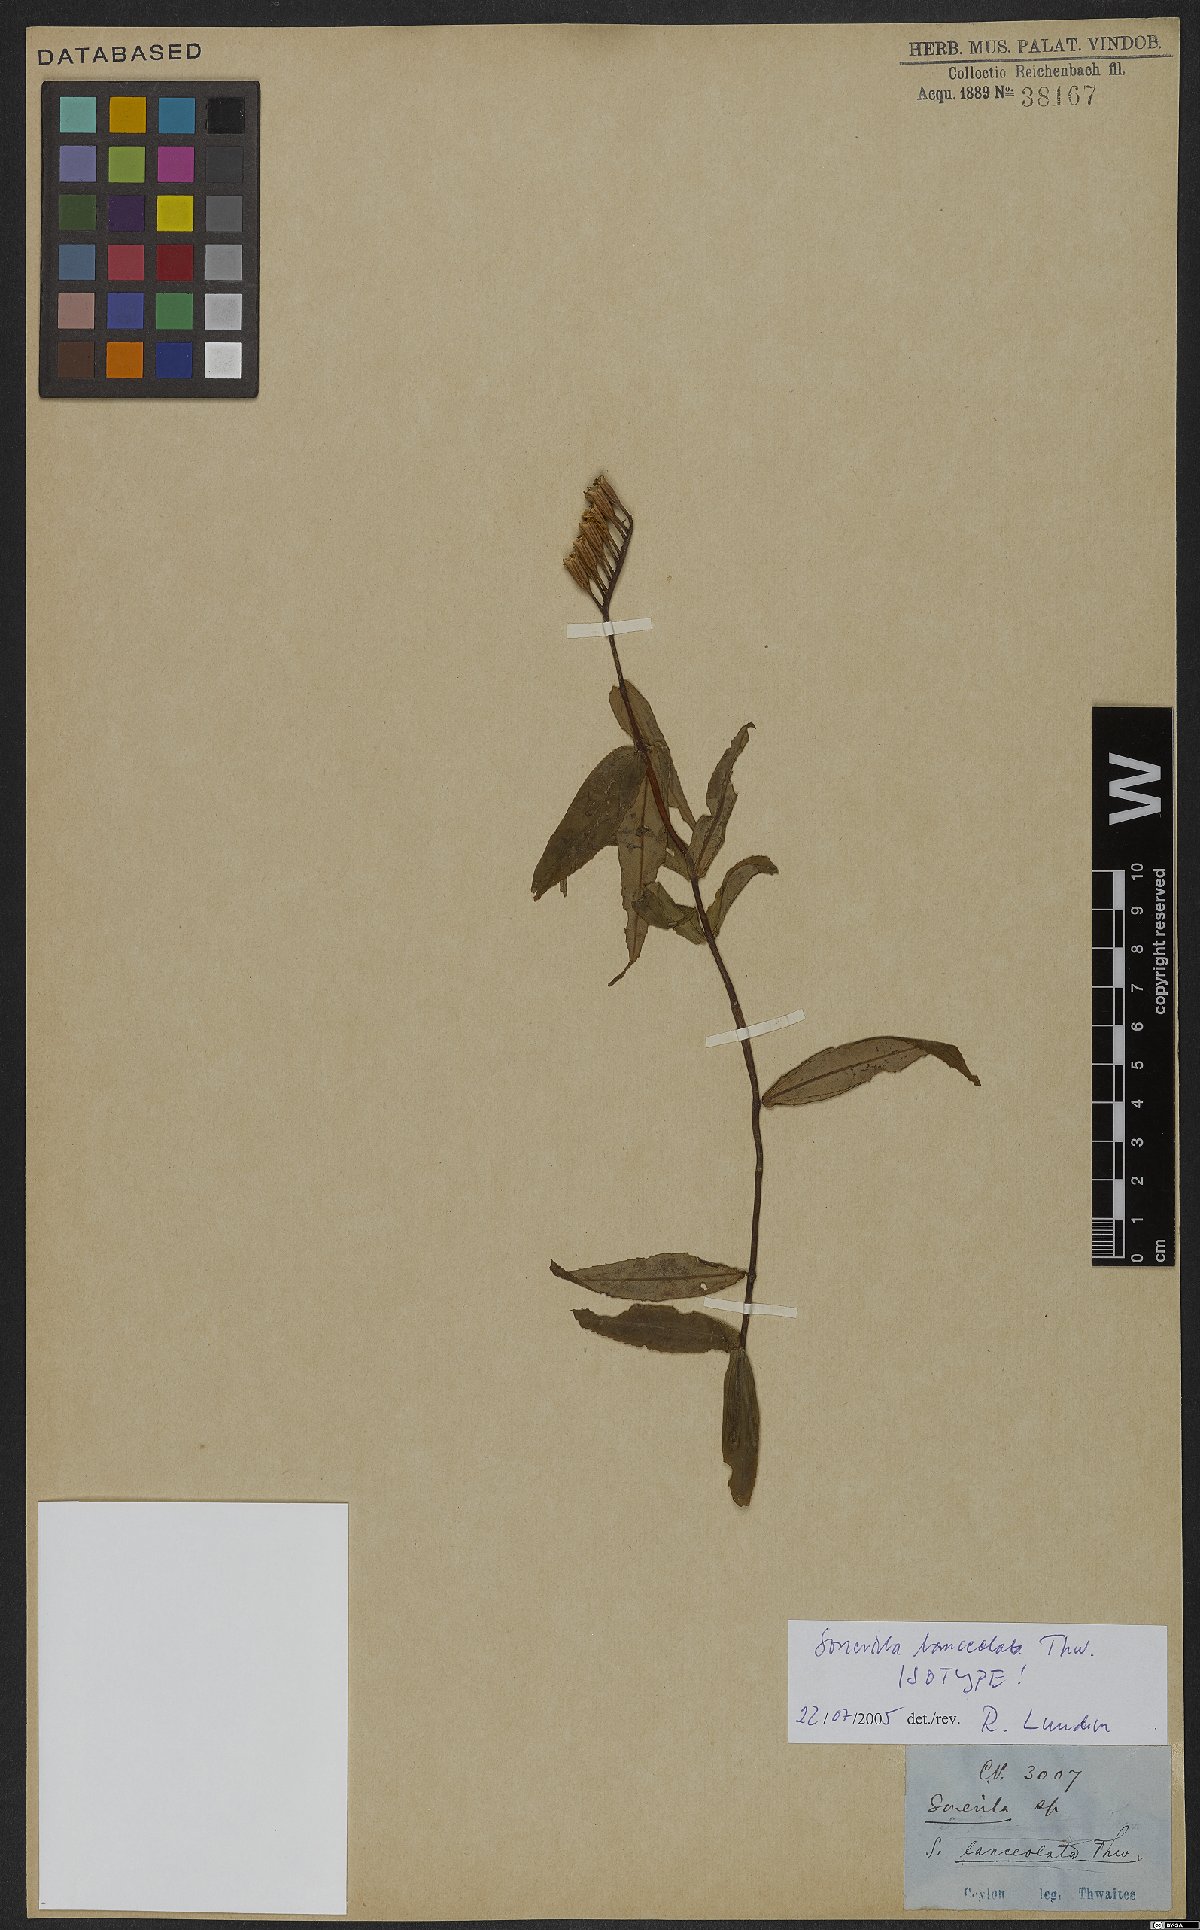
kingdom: Plantae
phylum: Tracheophyta
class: Magnoliopsida
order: Myrtales
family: Melastomataceae
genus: Sonerila
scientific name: Sonerila lanceolata
